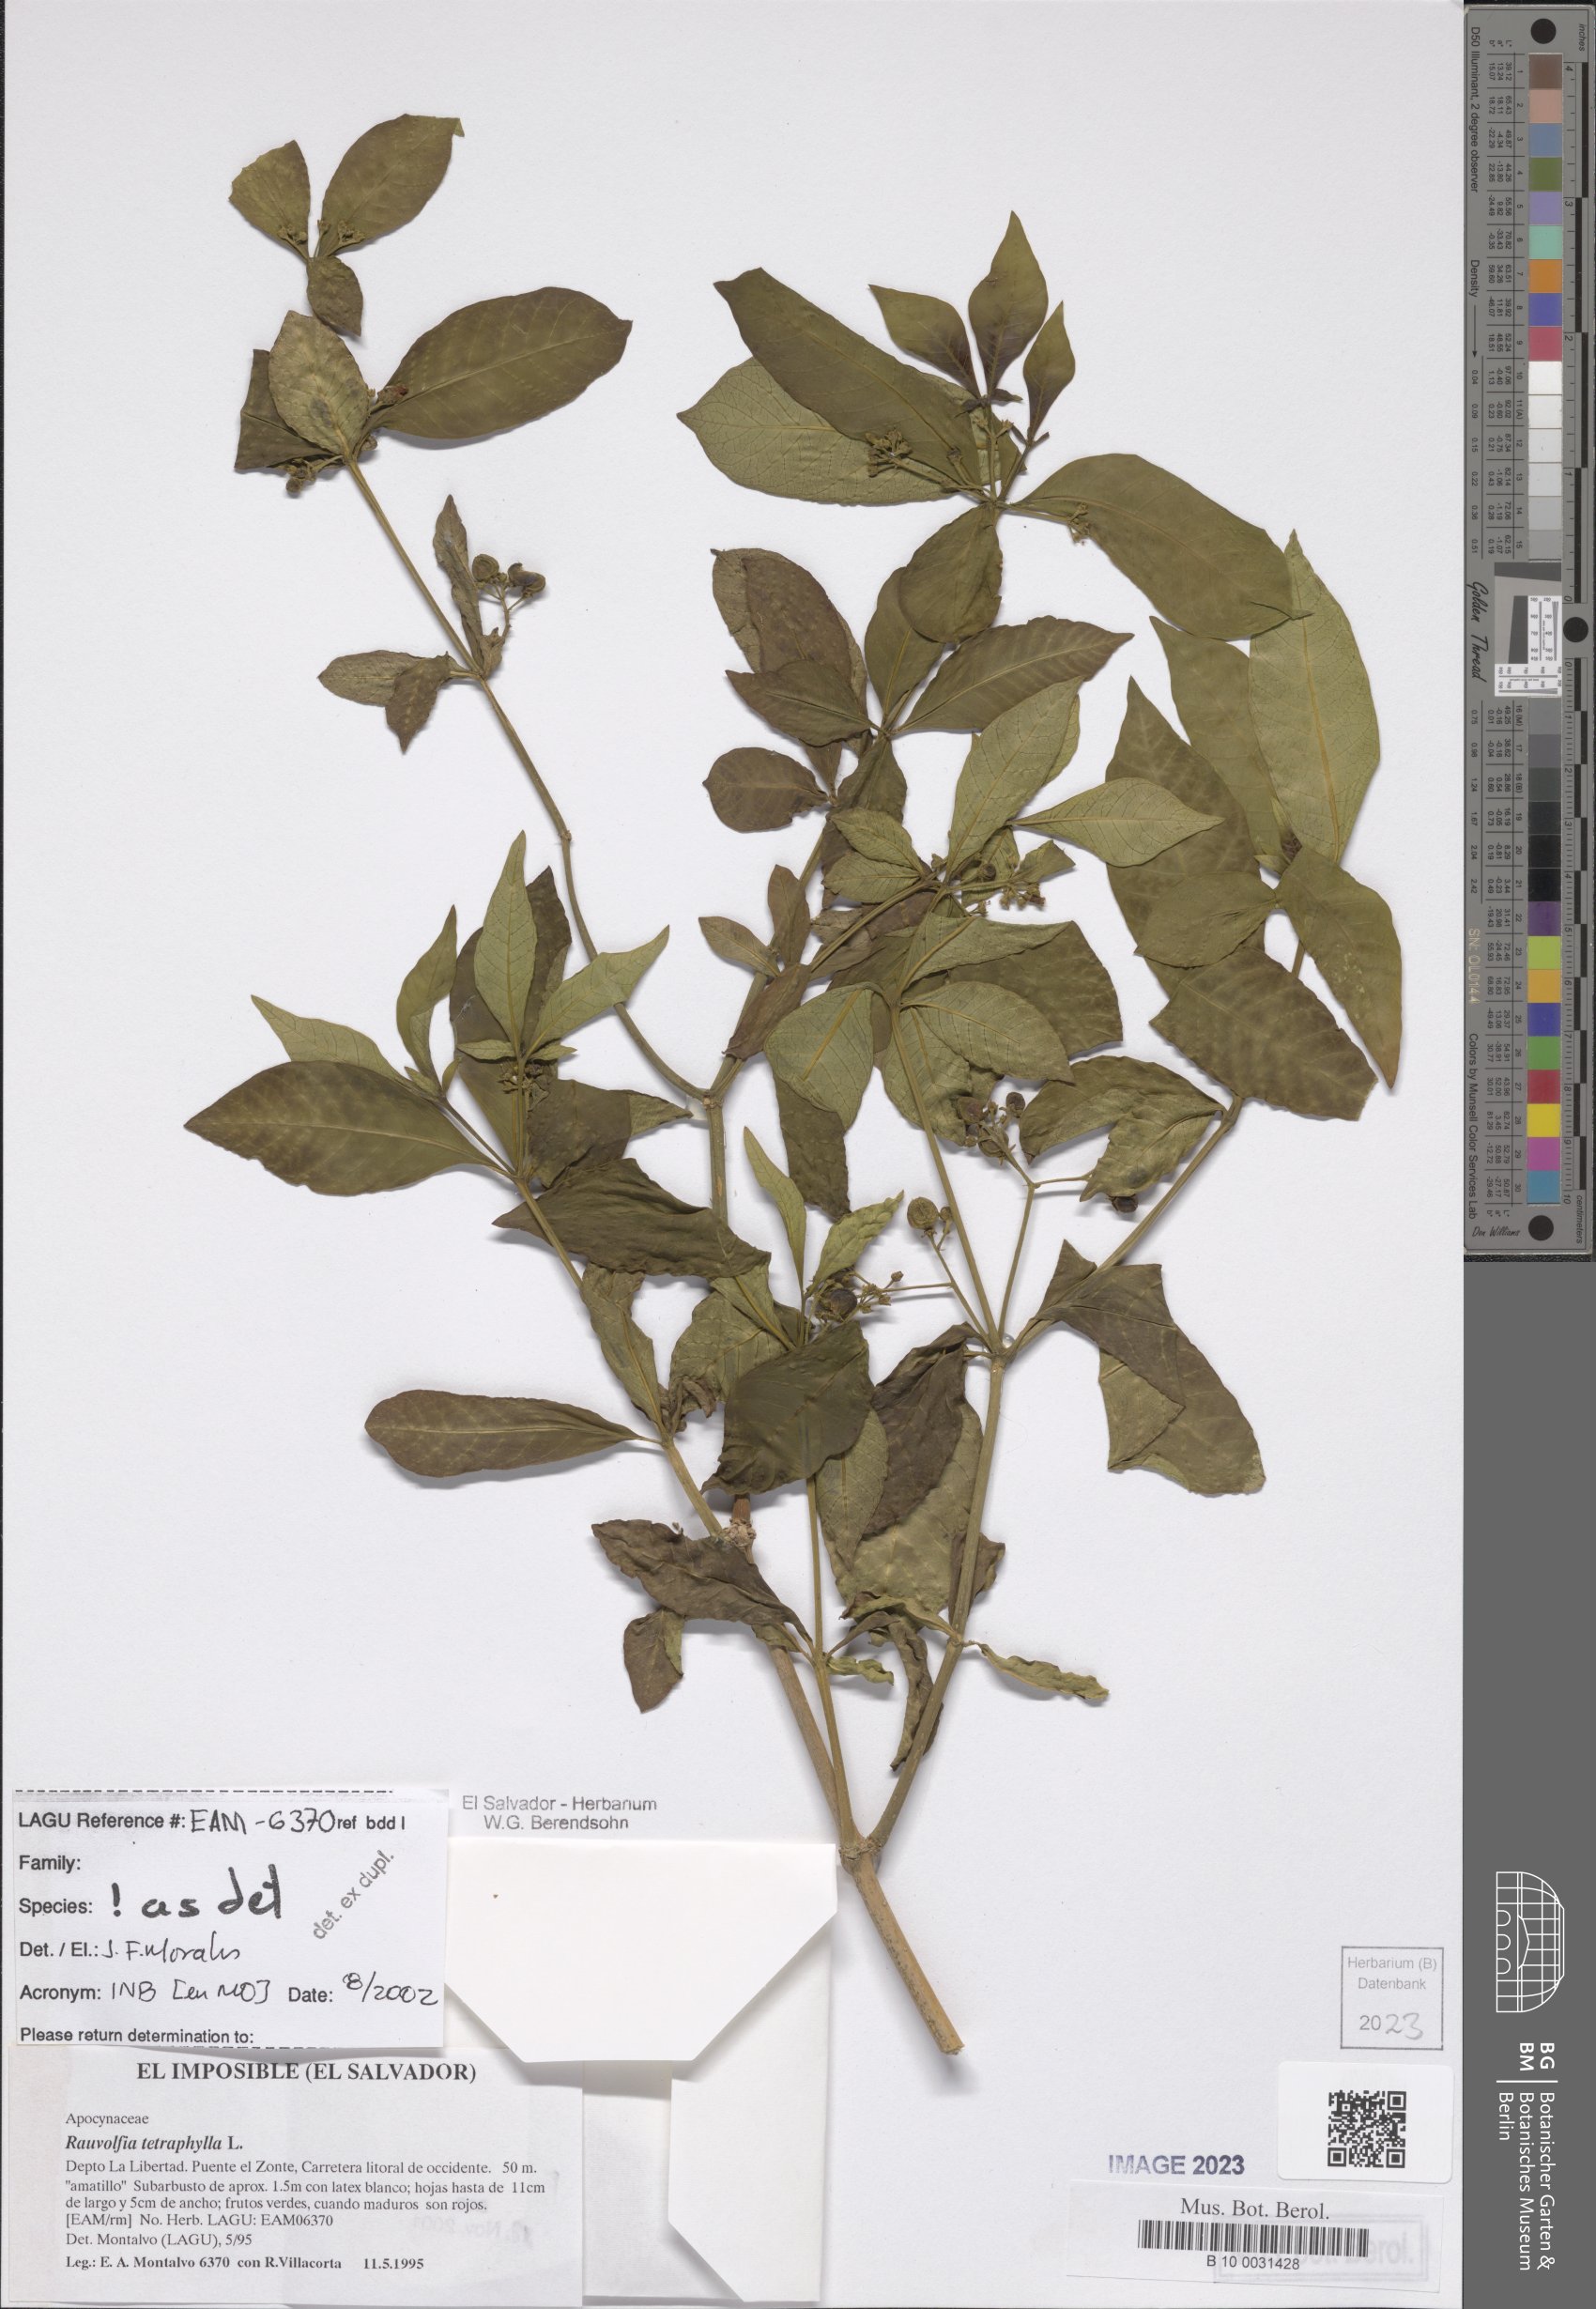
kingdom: Plantae
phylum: Tracheophyta
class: Magnoliopsida
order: Gentianales
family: Apocynaceae
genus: Rauvolfia
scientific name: Rauvolfia tetraphylla
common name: Four-leaf devil-pepper
